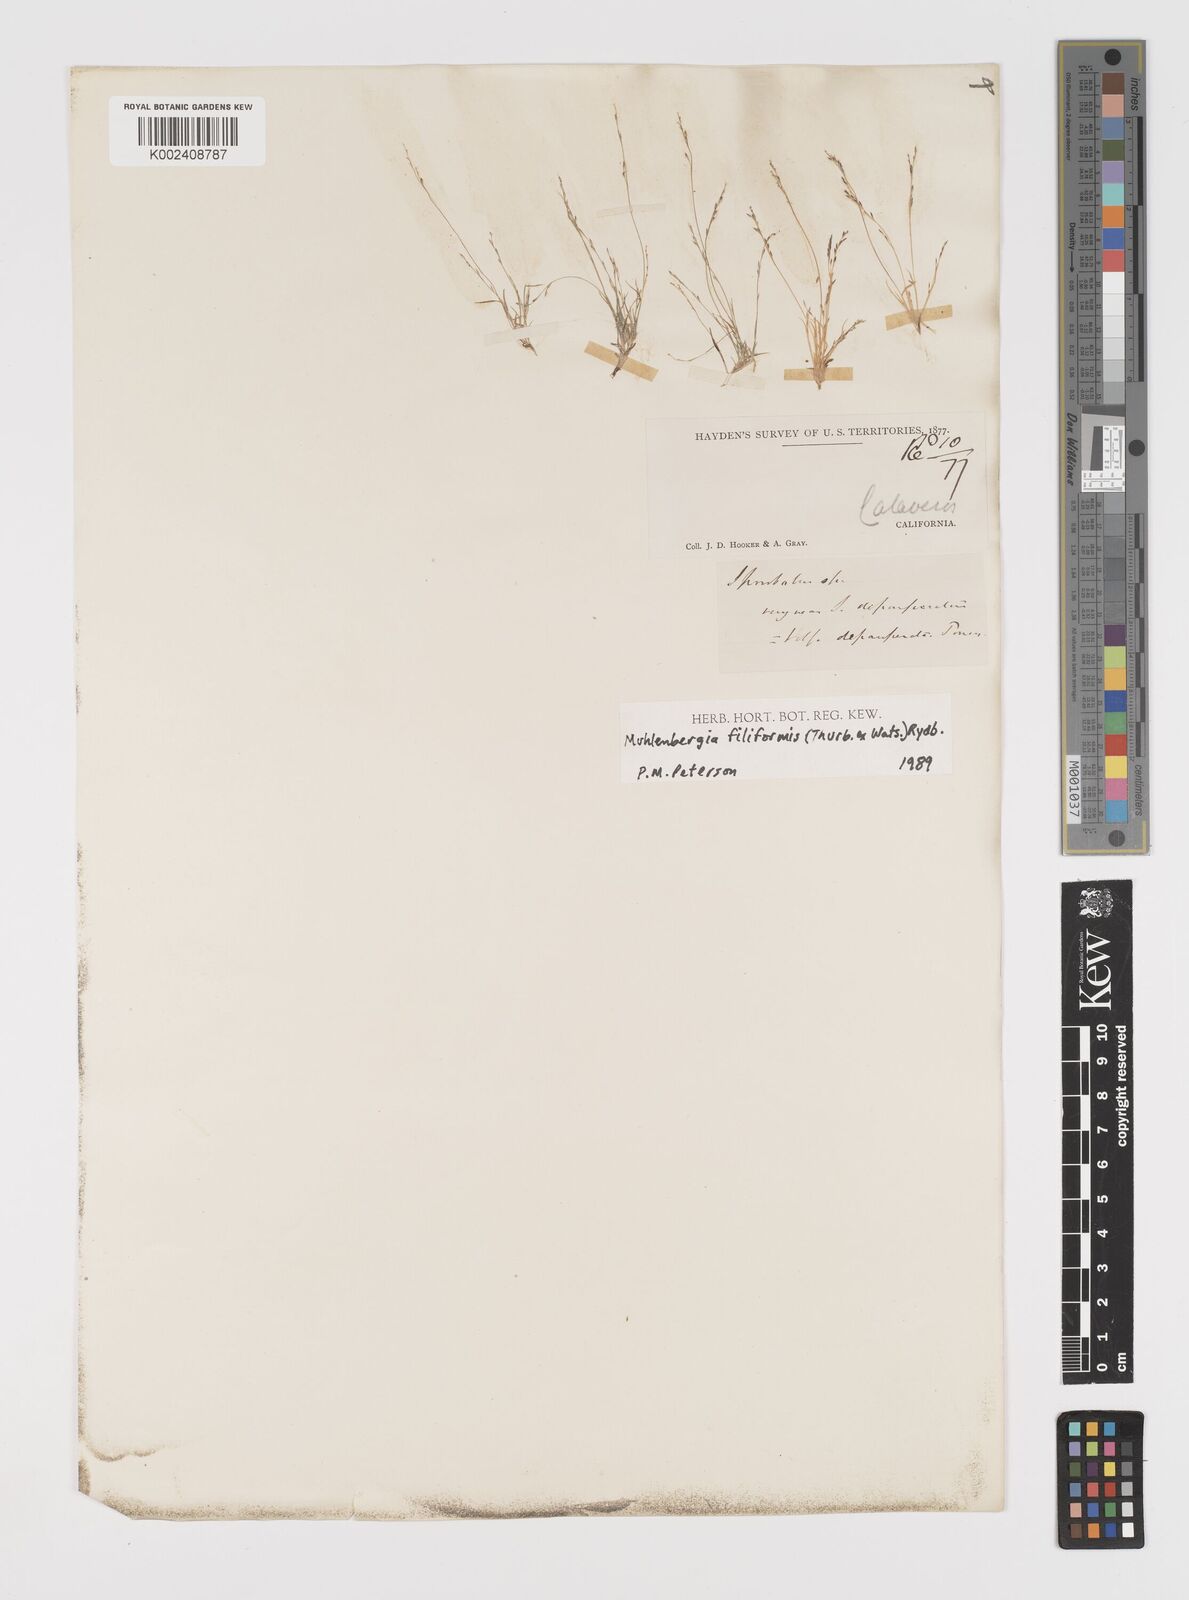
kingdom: Plantae
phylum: Tracheophyta
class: Liliopsida
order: Poales
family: Poaceae
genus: Leptochloa
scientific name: Leptochloa mucronata
